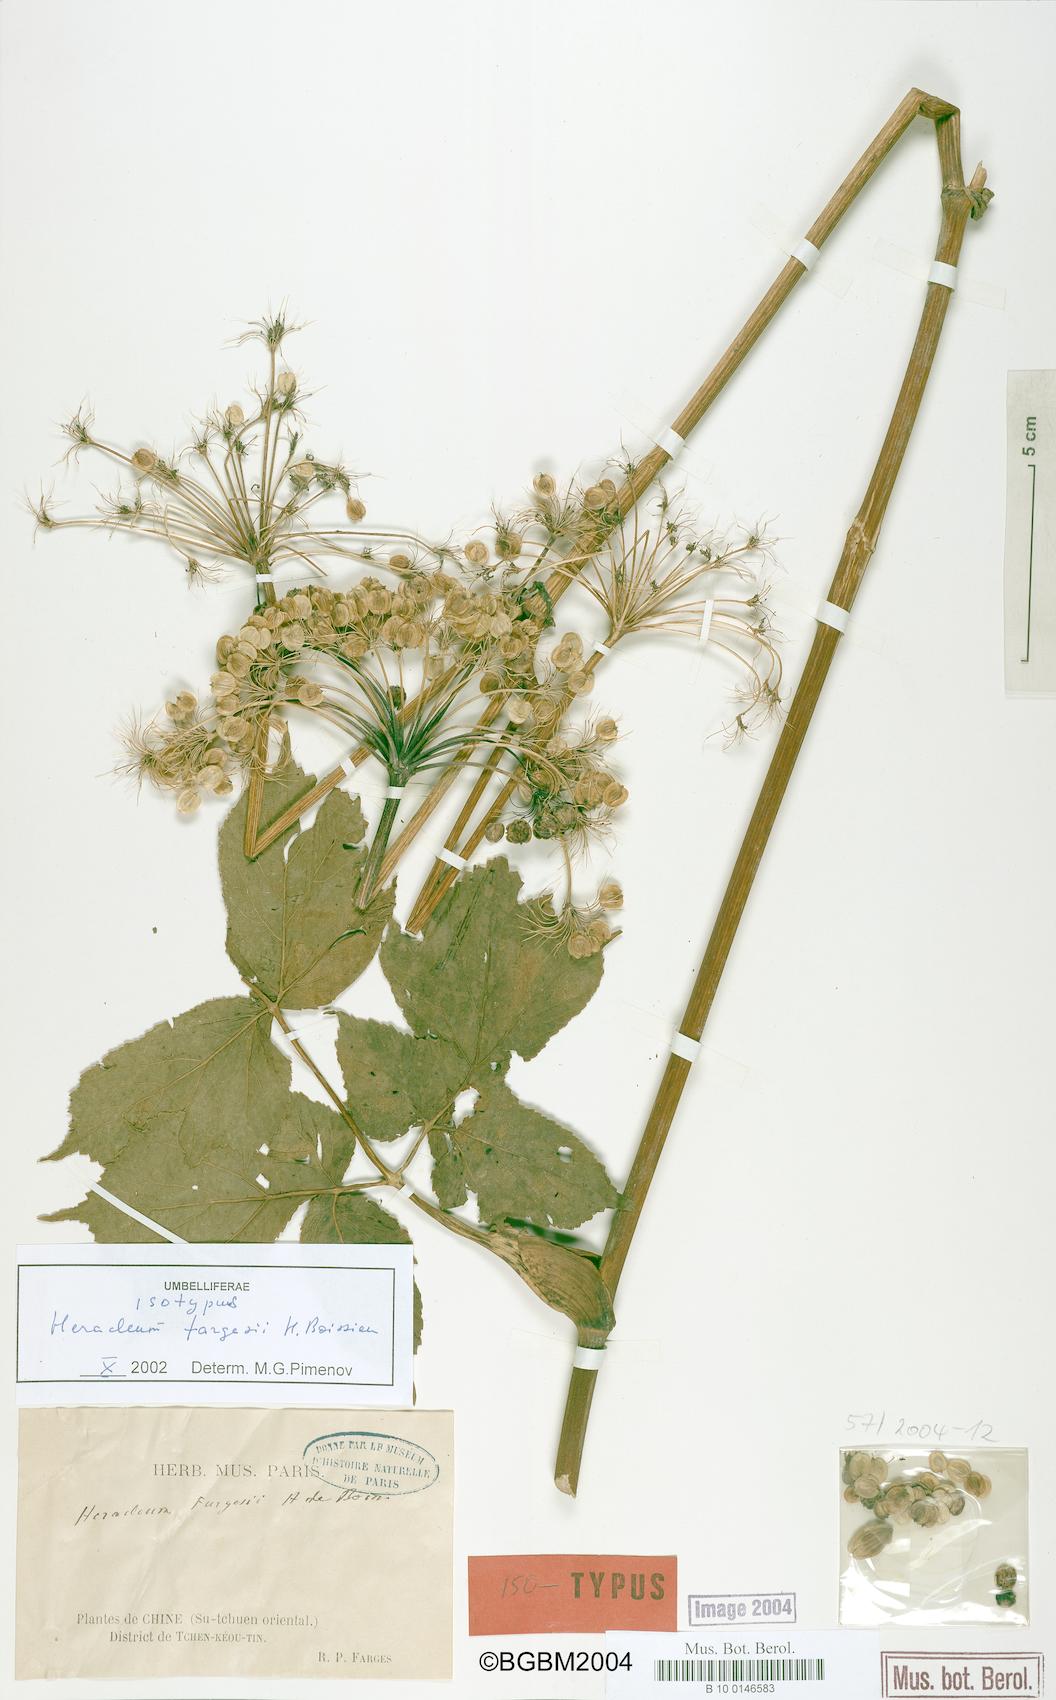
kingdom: Plantae
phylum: Tracheophyta
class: Magnoliopsida
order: Apiales
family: Apiaceae
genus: Heracleum
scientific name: Heracleum fargesii
